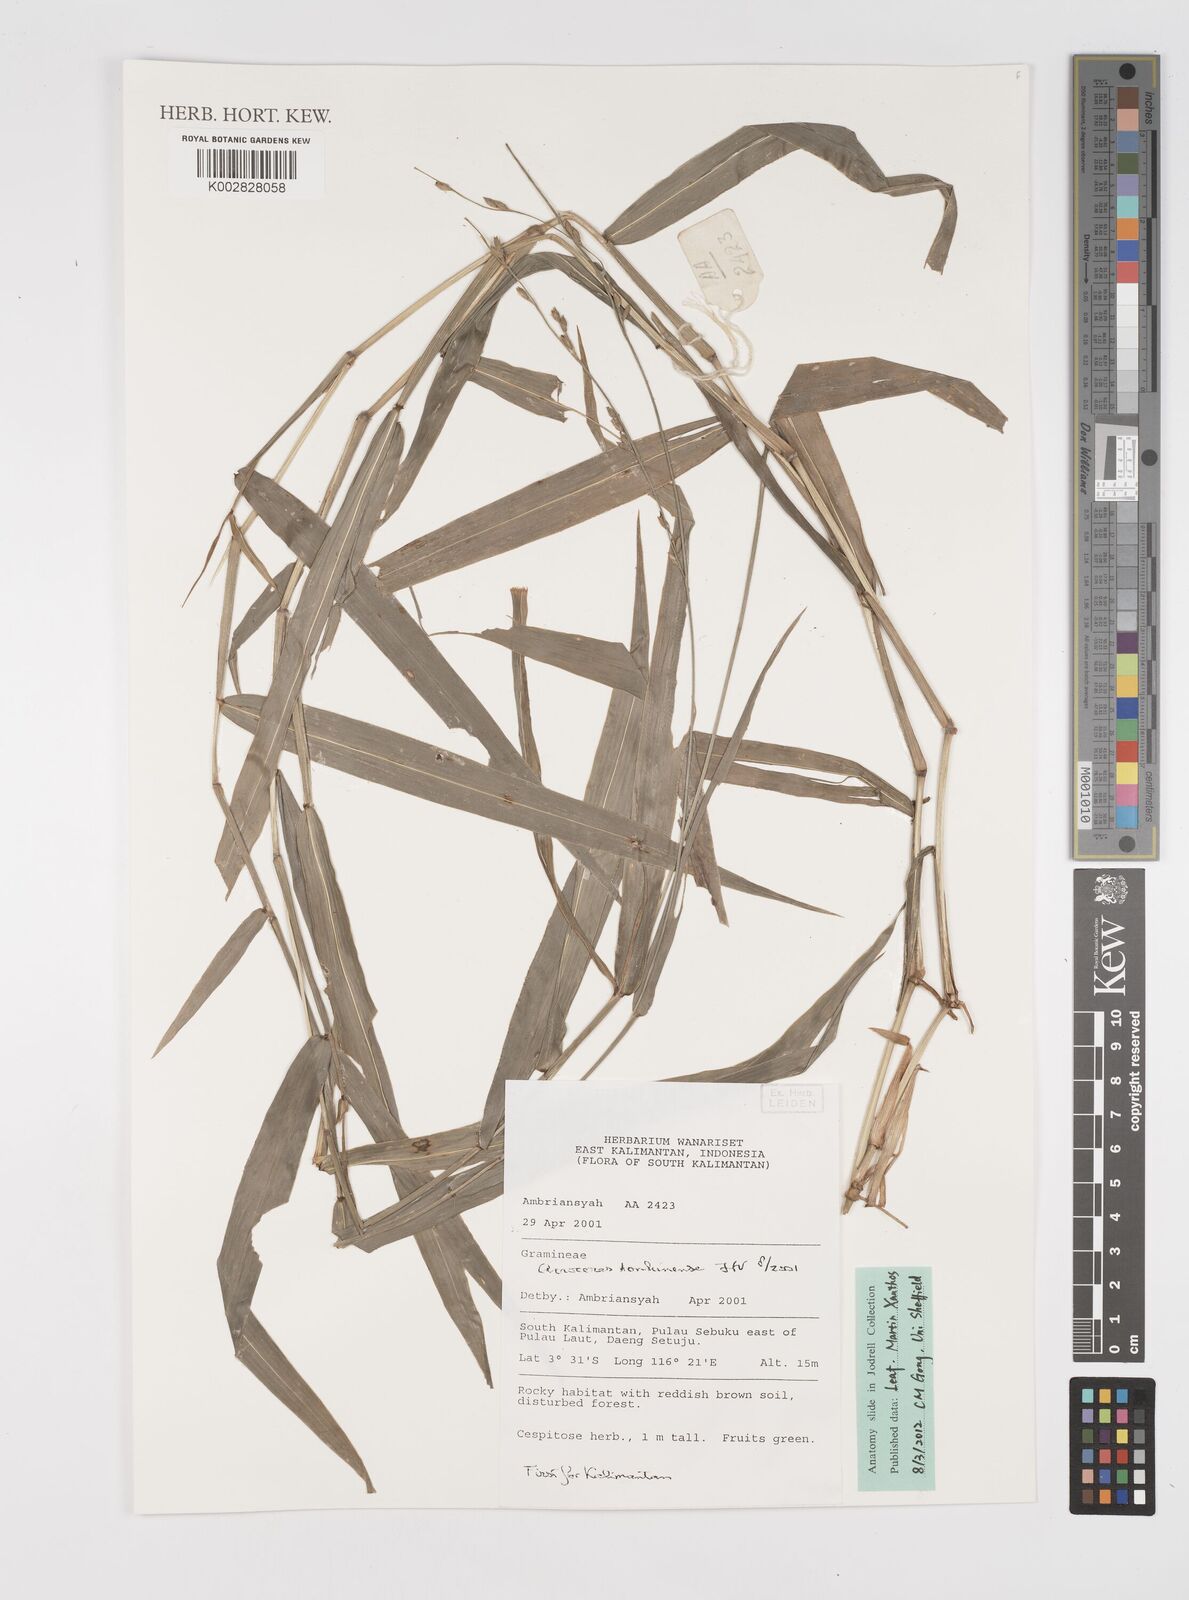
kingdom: Plantae
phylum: Tracheophyta
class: Liliopsida
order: Poales
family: Poaceae
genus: Acroceras
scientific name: Acroceras tonkinense
